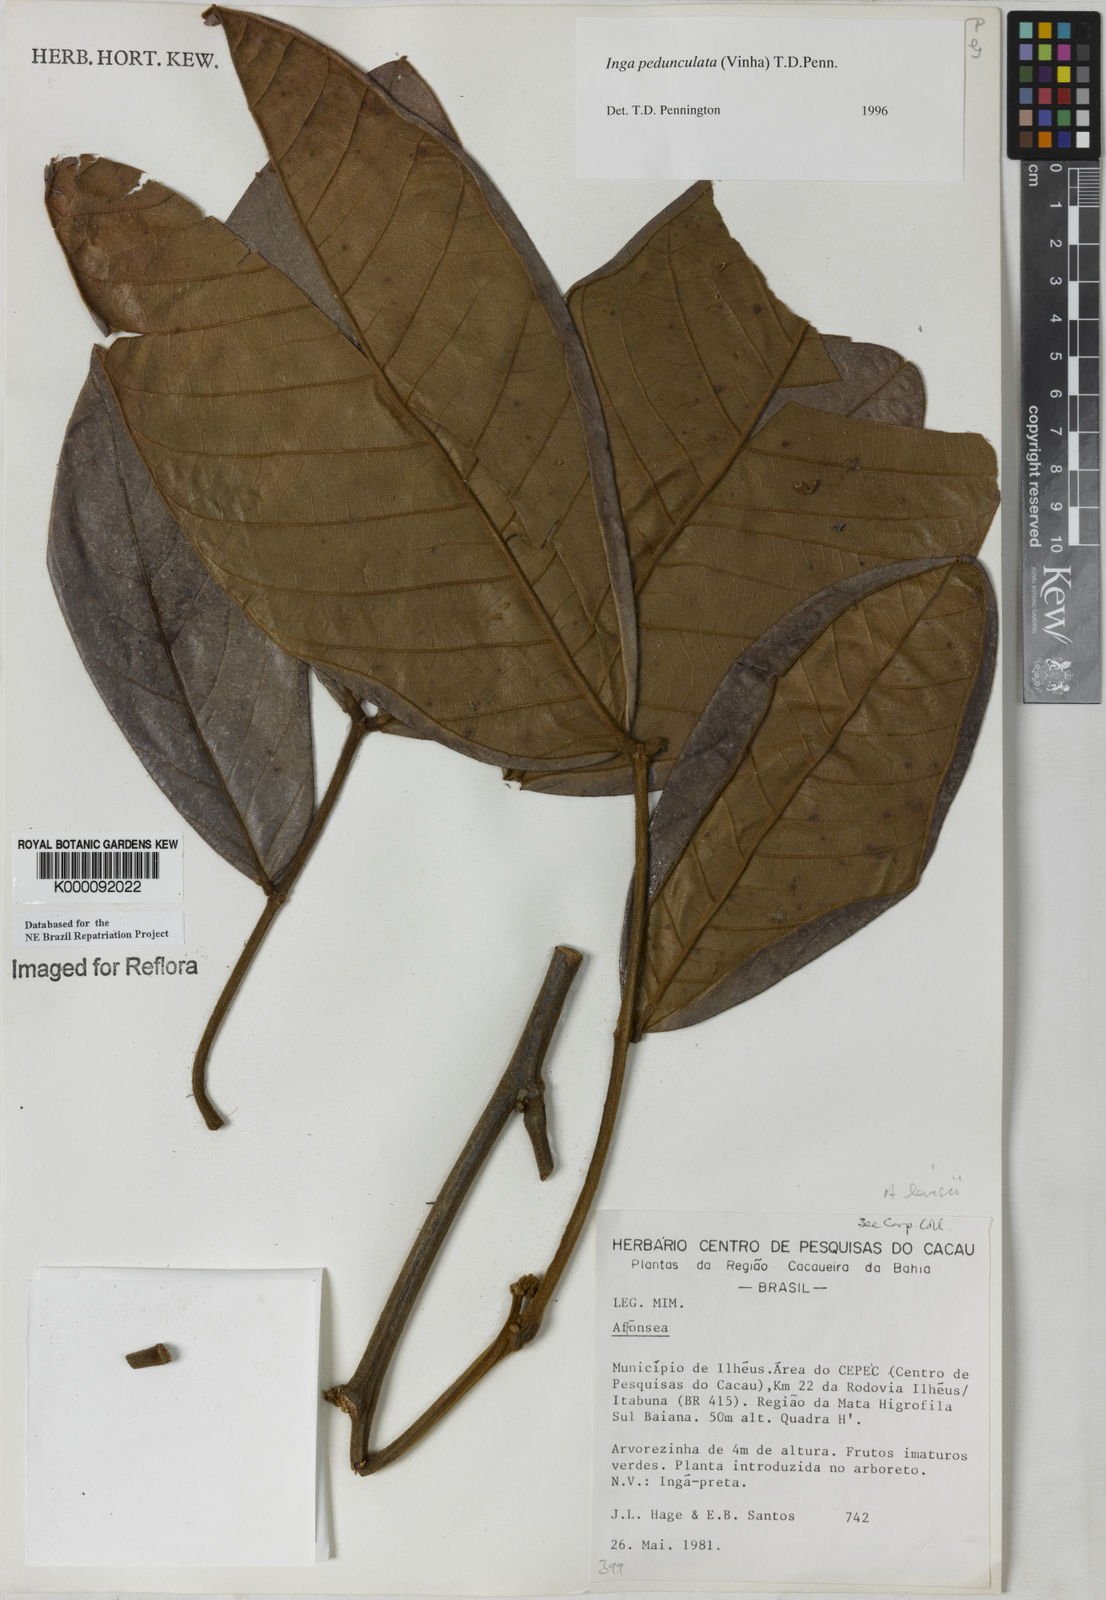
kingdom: Plantae
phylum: Tracheophyta
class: Magnoliopsida
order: Fabales
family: Fabaceae
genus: Inga
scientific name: Inga pedunculata
